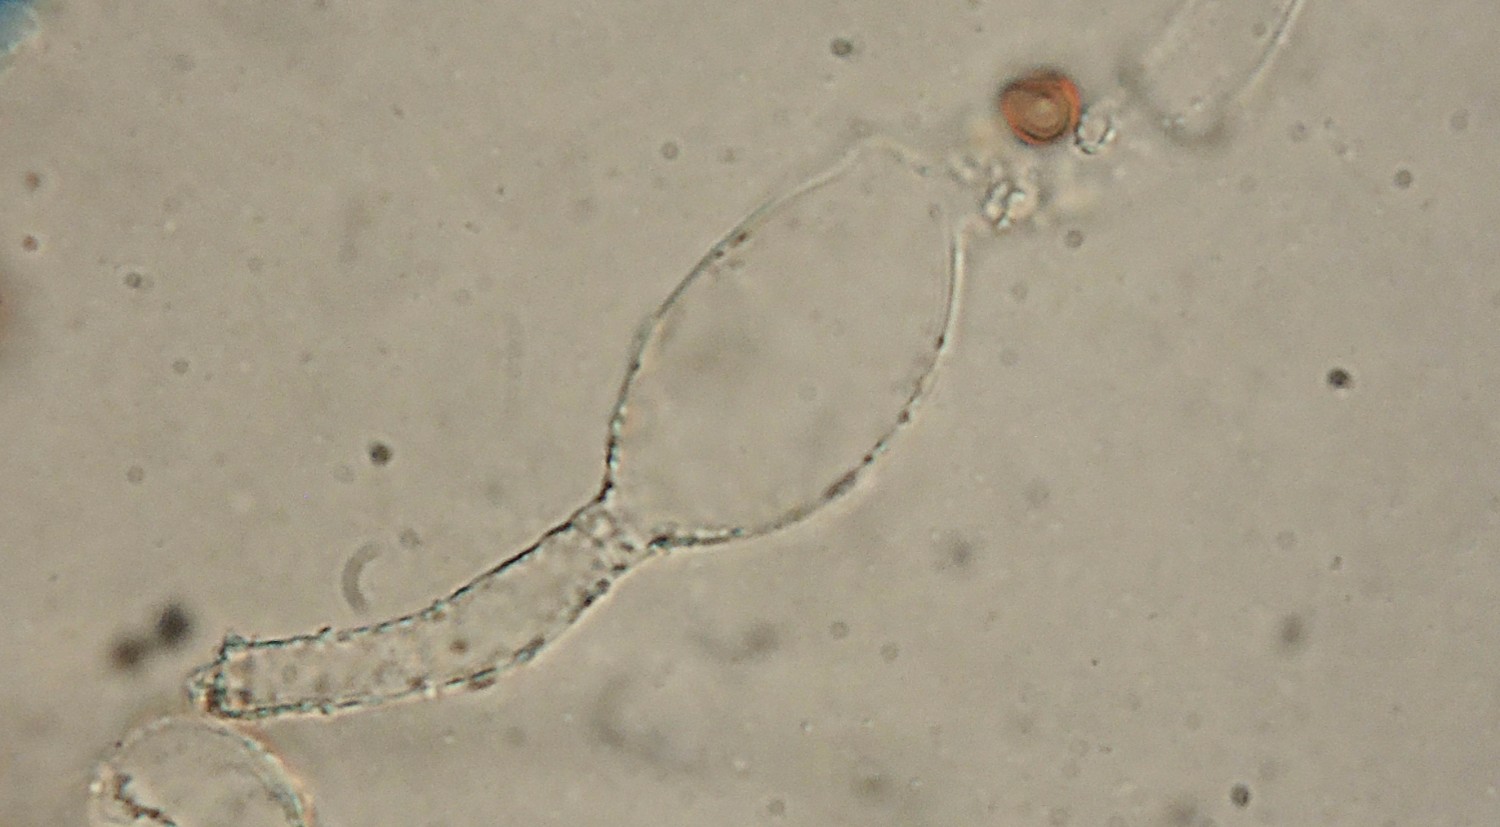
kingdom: Fungi
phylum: Basidiomycota
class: Agaricomycetes
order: Agaricales
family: Psathyrellaceae
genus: Coprinopsis
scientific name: Coprinopsis candidata
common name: hvidklædt blækhat
